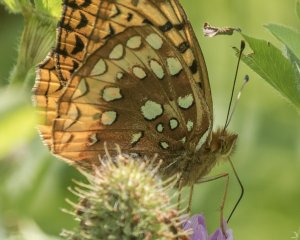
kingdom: Animalia
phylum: Arthropoda
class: Insecta
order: Lepidoptera
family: Nymphalidae
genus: Speyeria
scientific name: Speyeria cybele
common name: Great Spangled Fritillary
